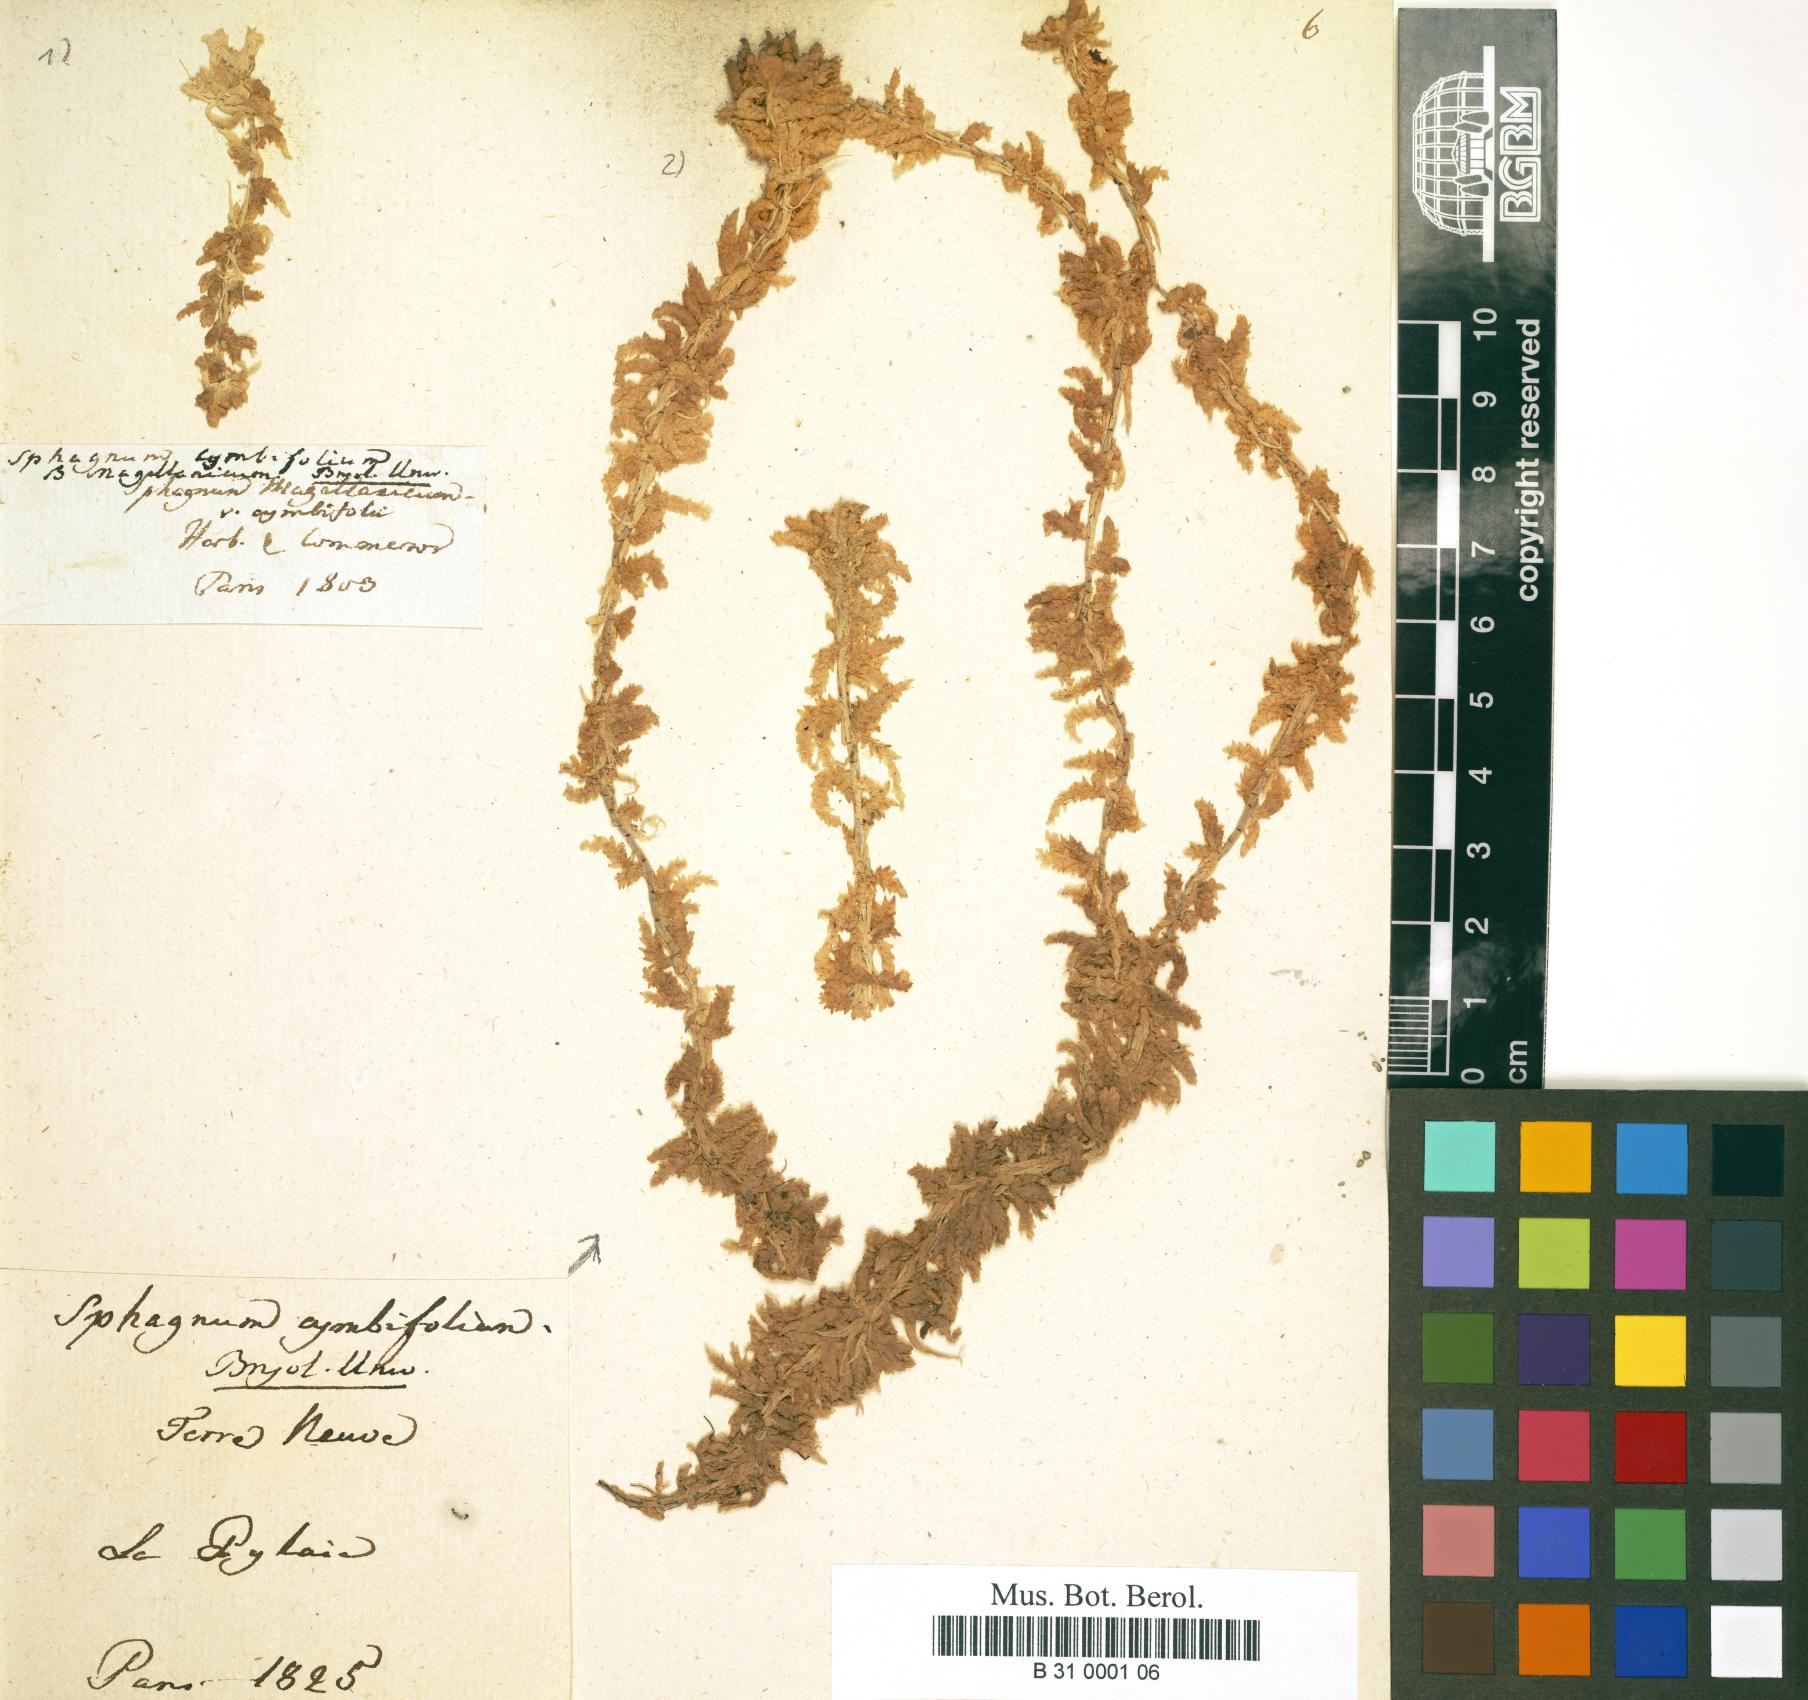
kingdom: Plantae
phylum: Bryophyta
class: Sphagnopsida
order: Sphagnales
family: Sphagnaceae
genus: Sphagnum
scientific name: Sphagnum magellanicum
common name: Magellan's peat moss
